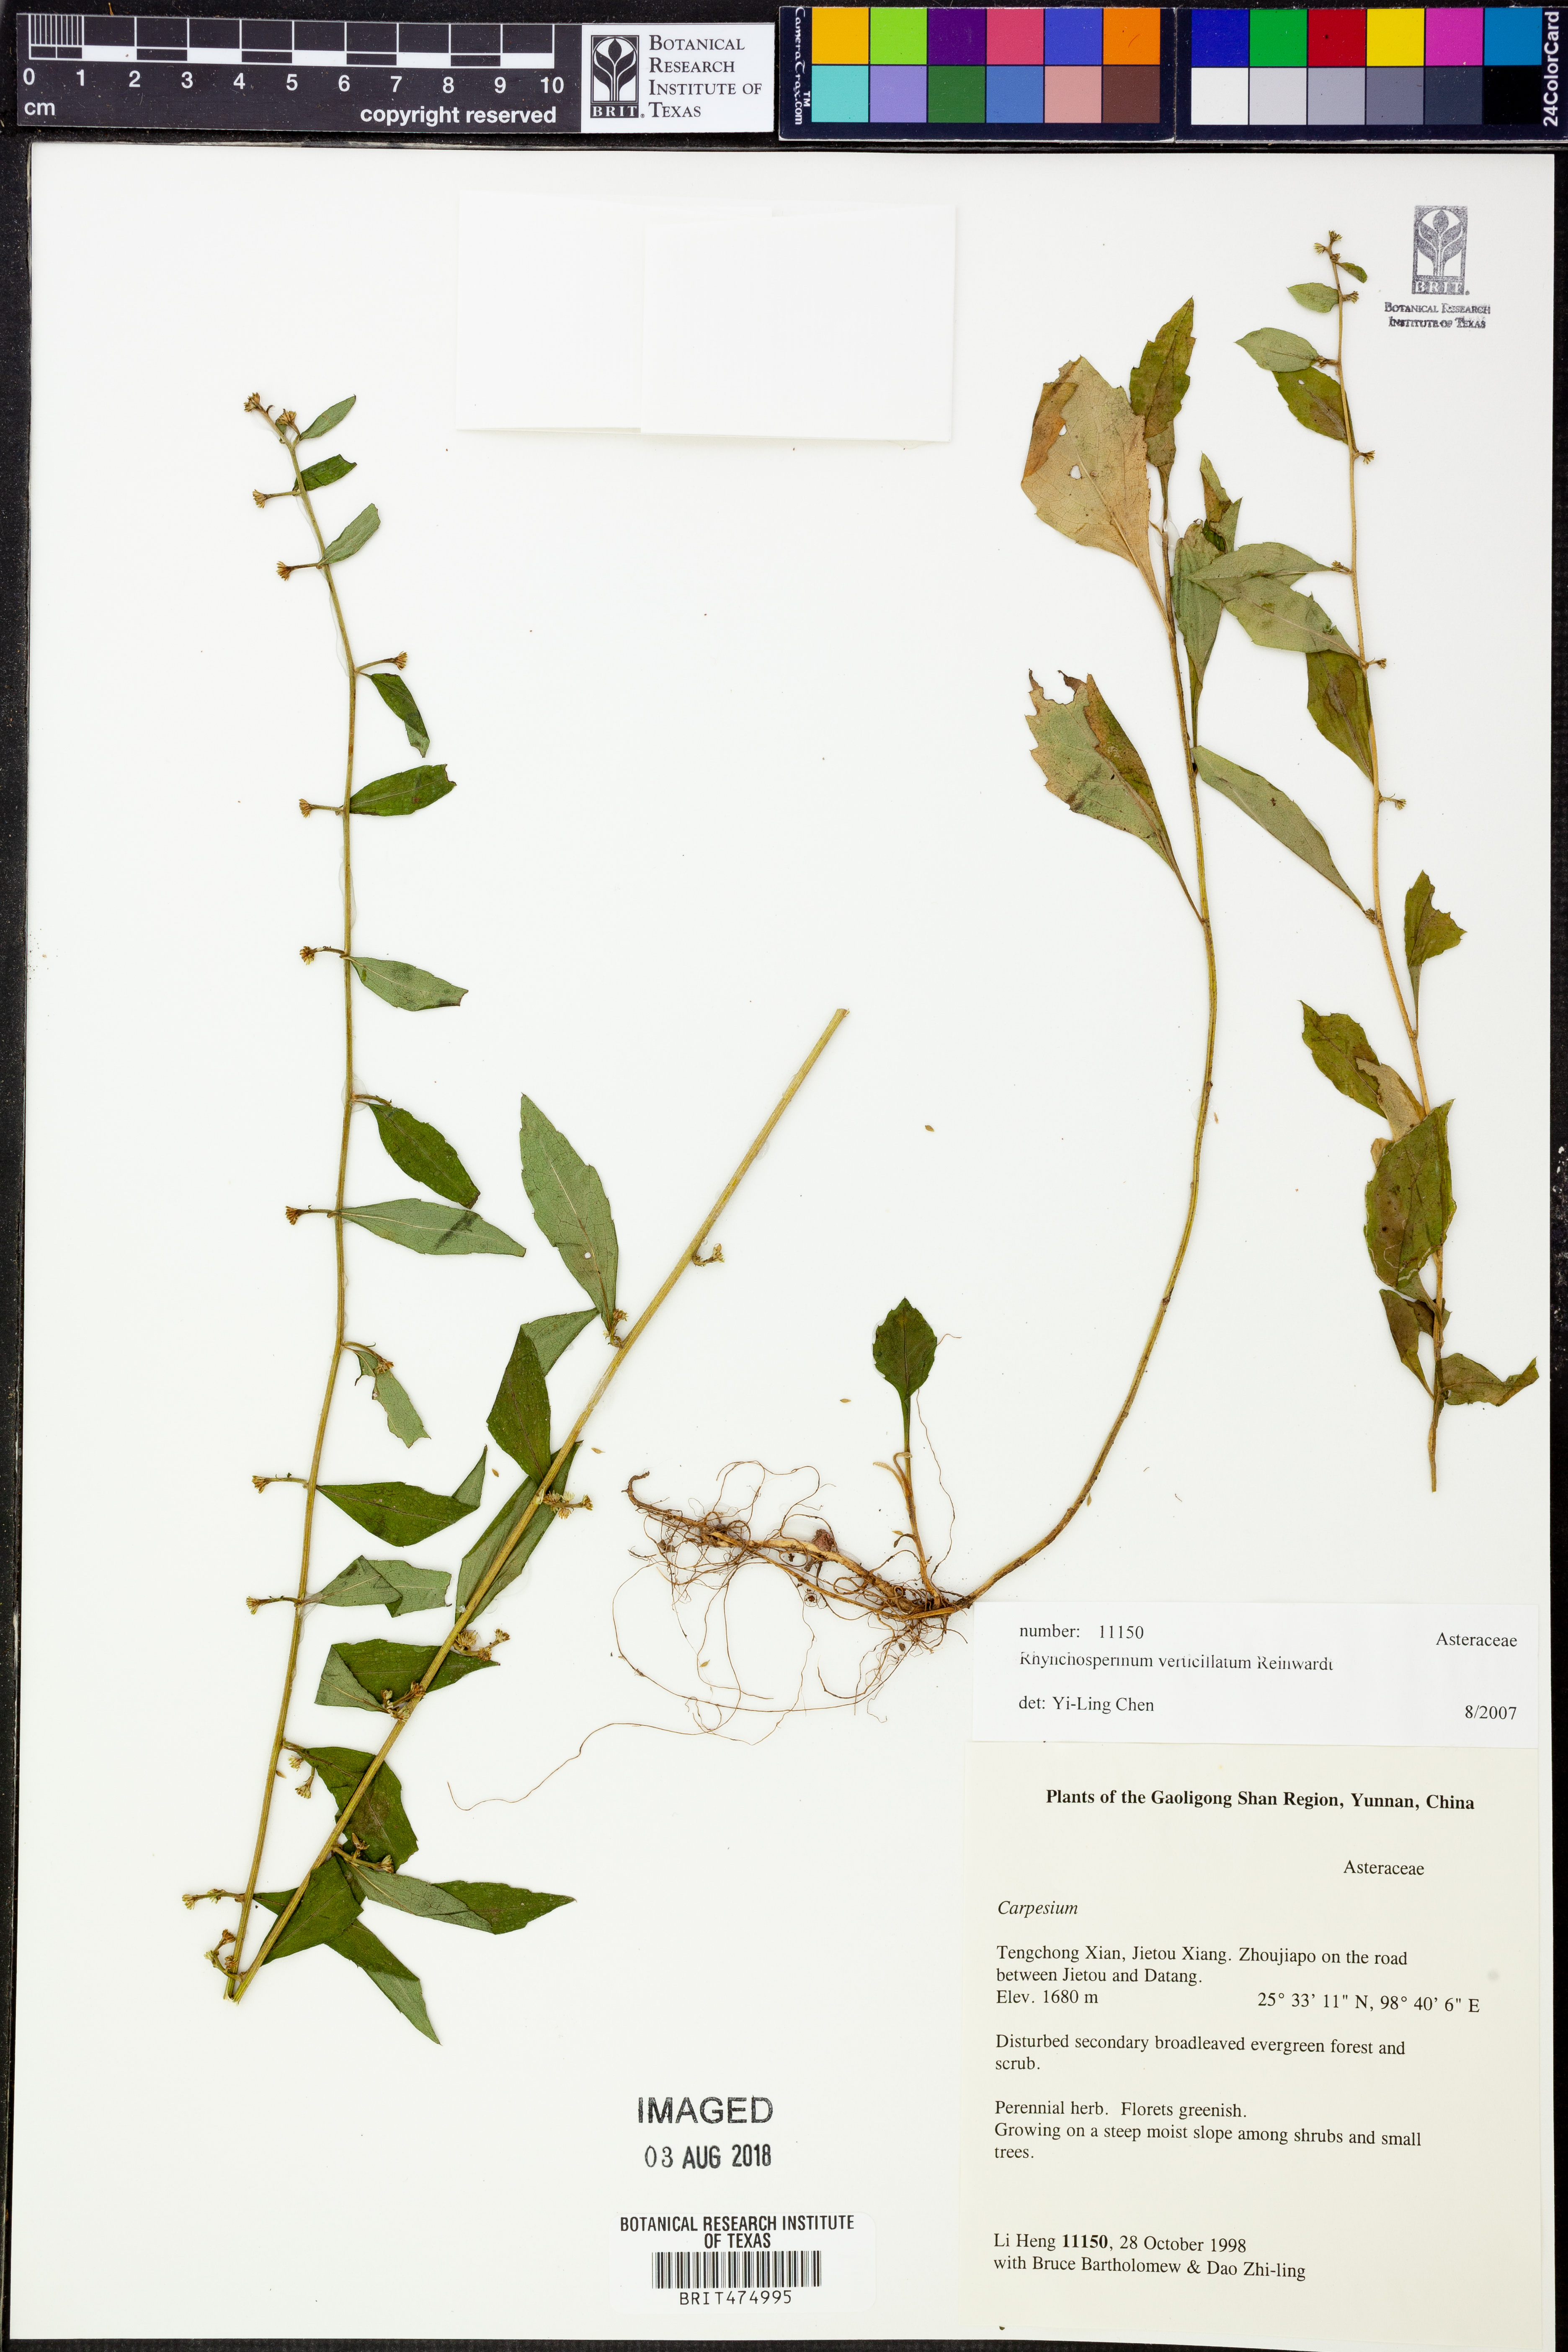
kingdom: Plantae
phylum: Tracheophyta
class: Magnoliopsida
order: Asterales
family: Asteraceae
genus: Rhynchospermum
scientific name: Rhynchospermum verticillatum
